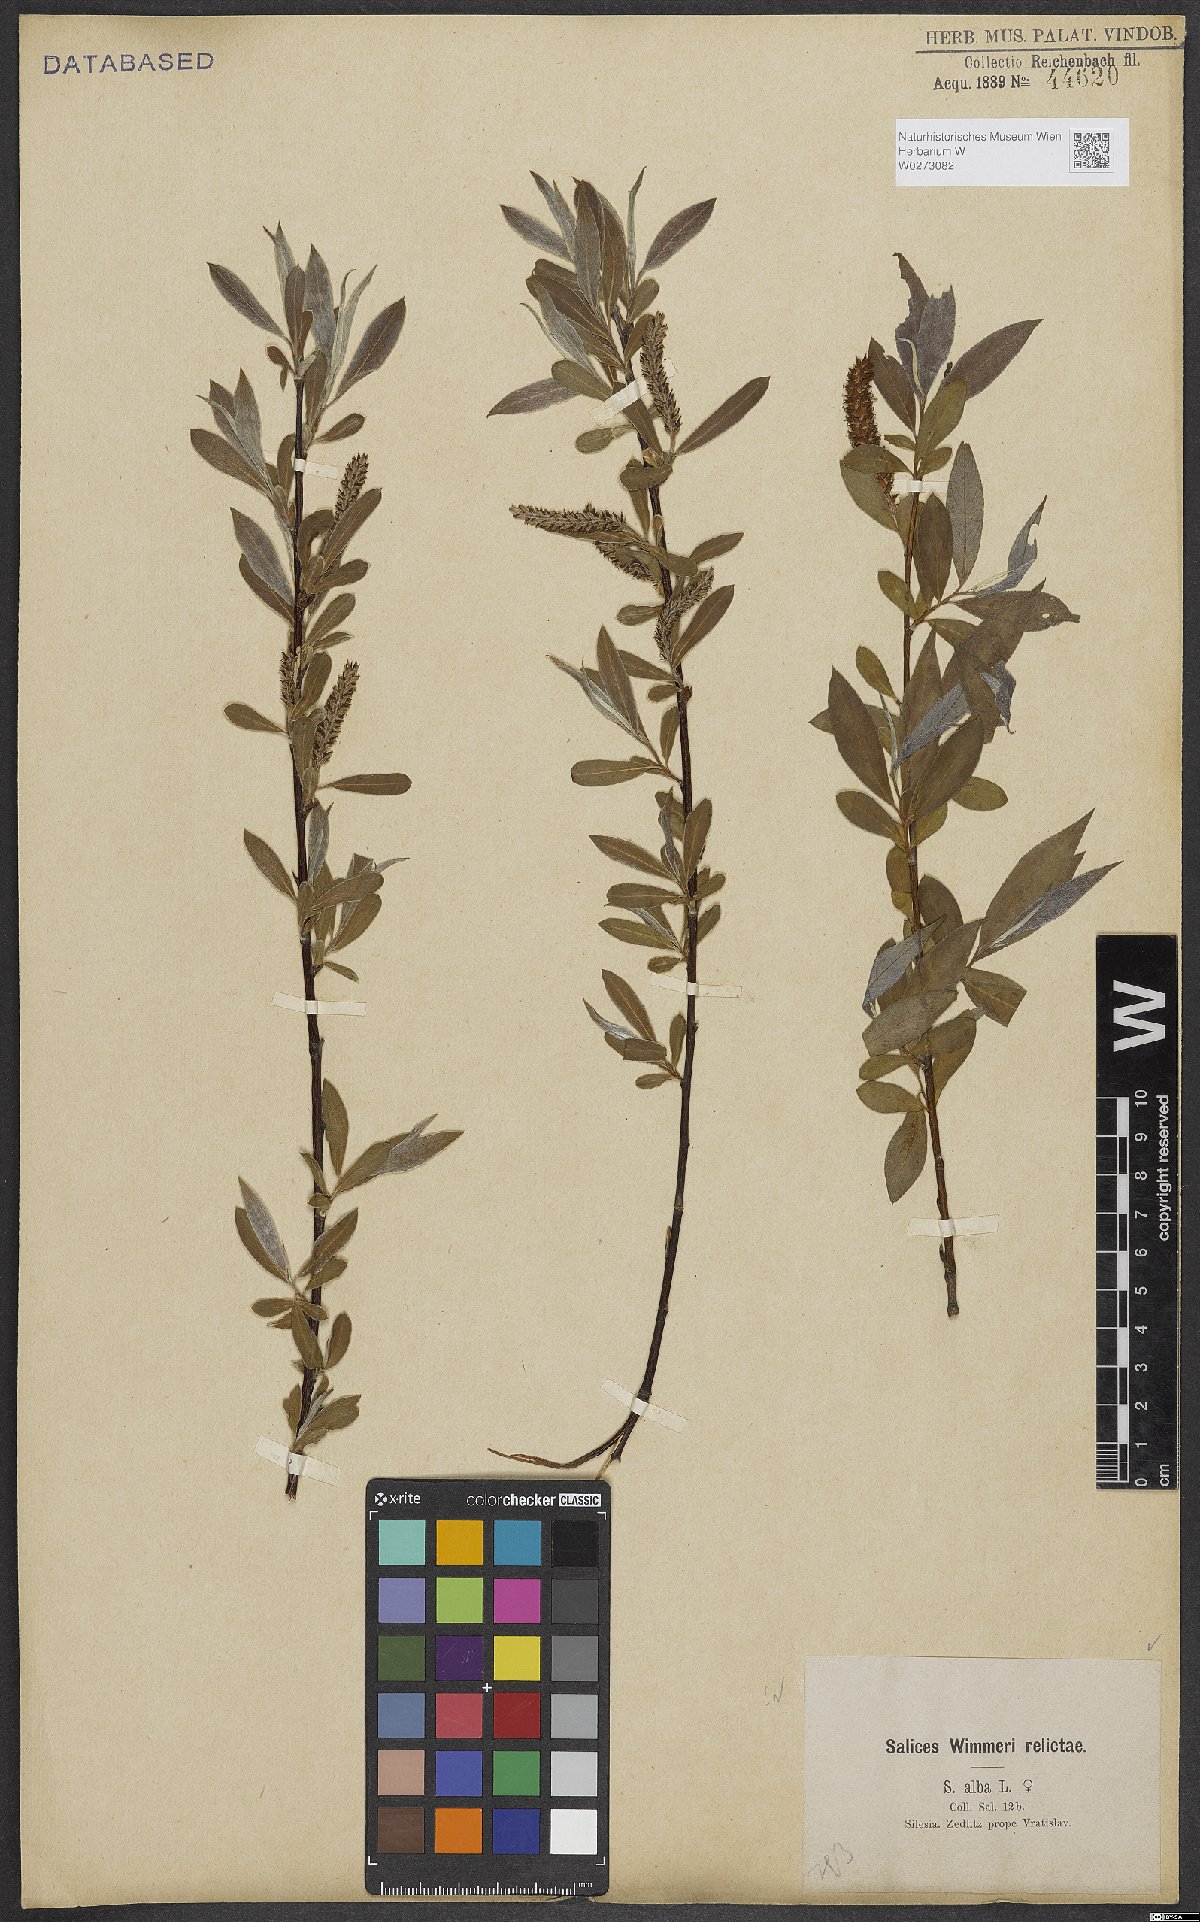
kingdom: Plantae
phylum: Tracheophyta
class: Magnoliopsida
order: Malpighiales
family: Salicaceae
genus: Salix
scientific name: Salix alba
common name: White willow
